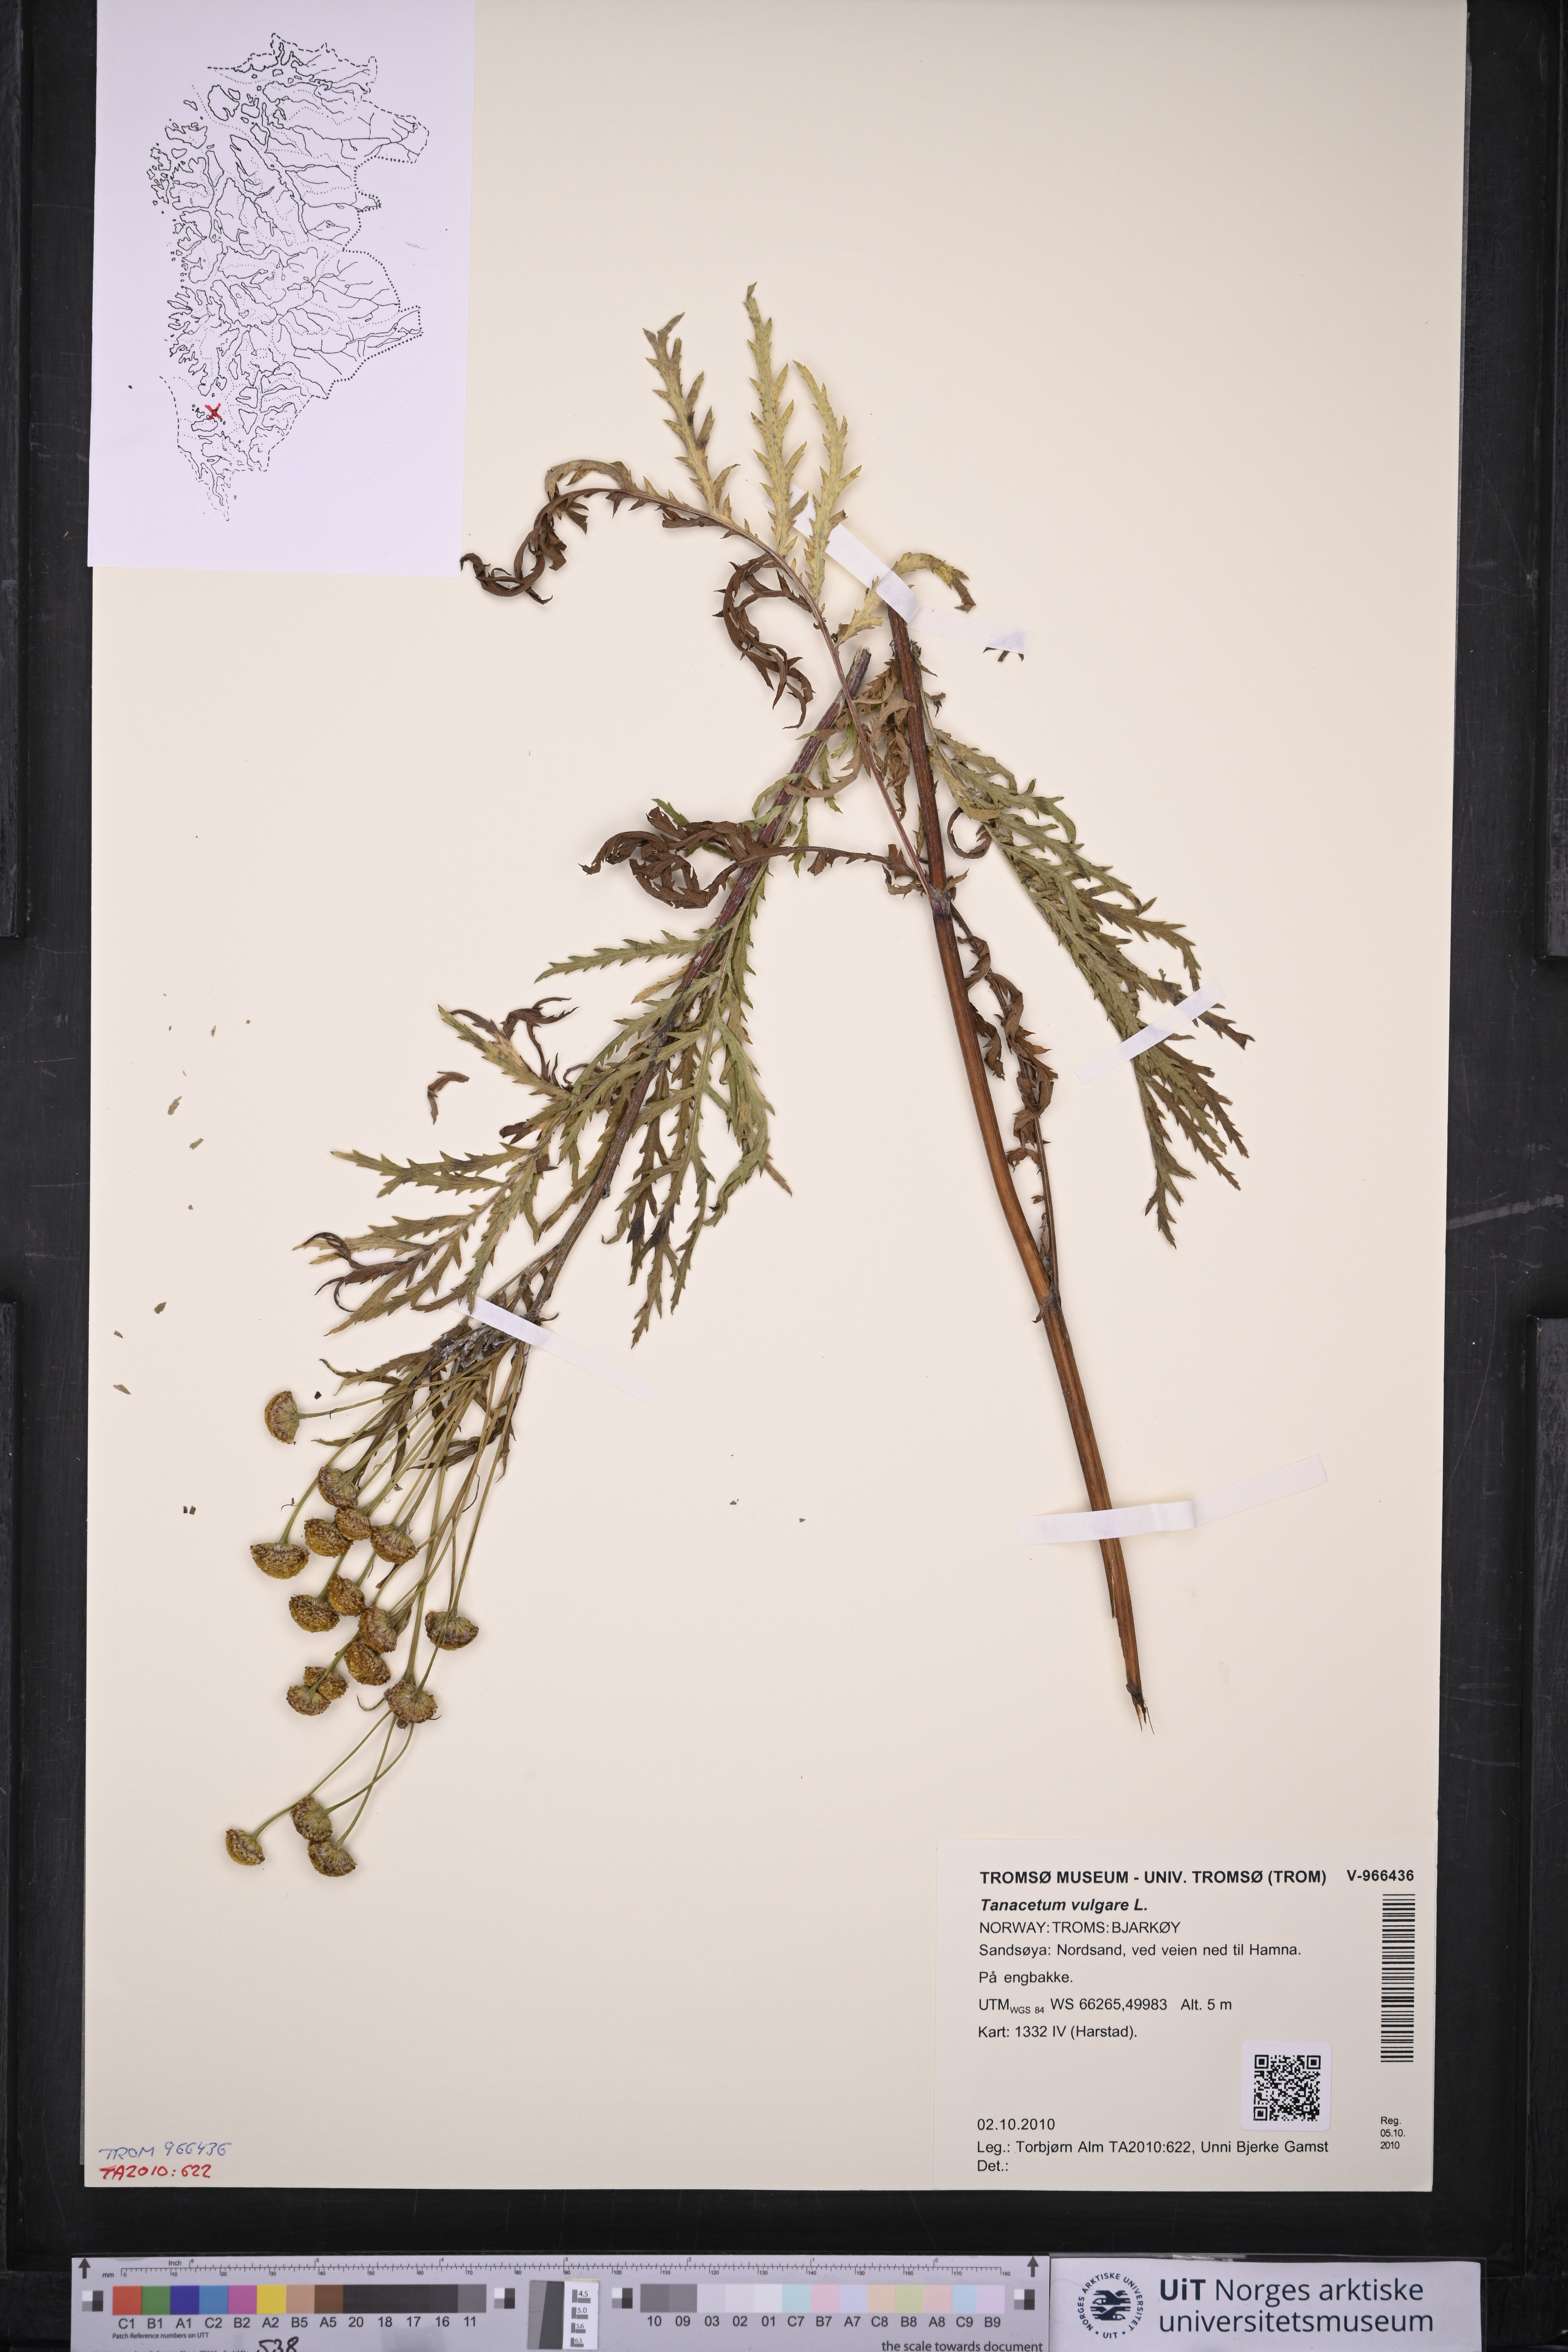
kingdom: Plantae
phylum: Tracheophyta
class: Magnoliopsida
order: Asterales
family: Asteraceae
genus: Tanacetum
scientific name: Tanacetum vulgare
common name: Common tansy
